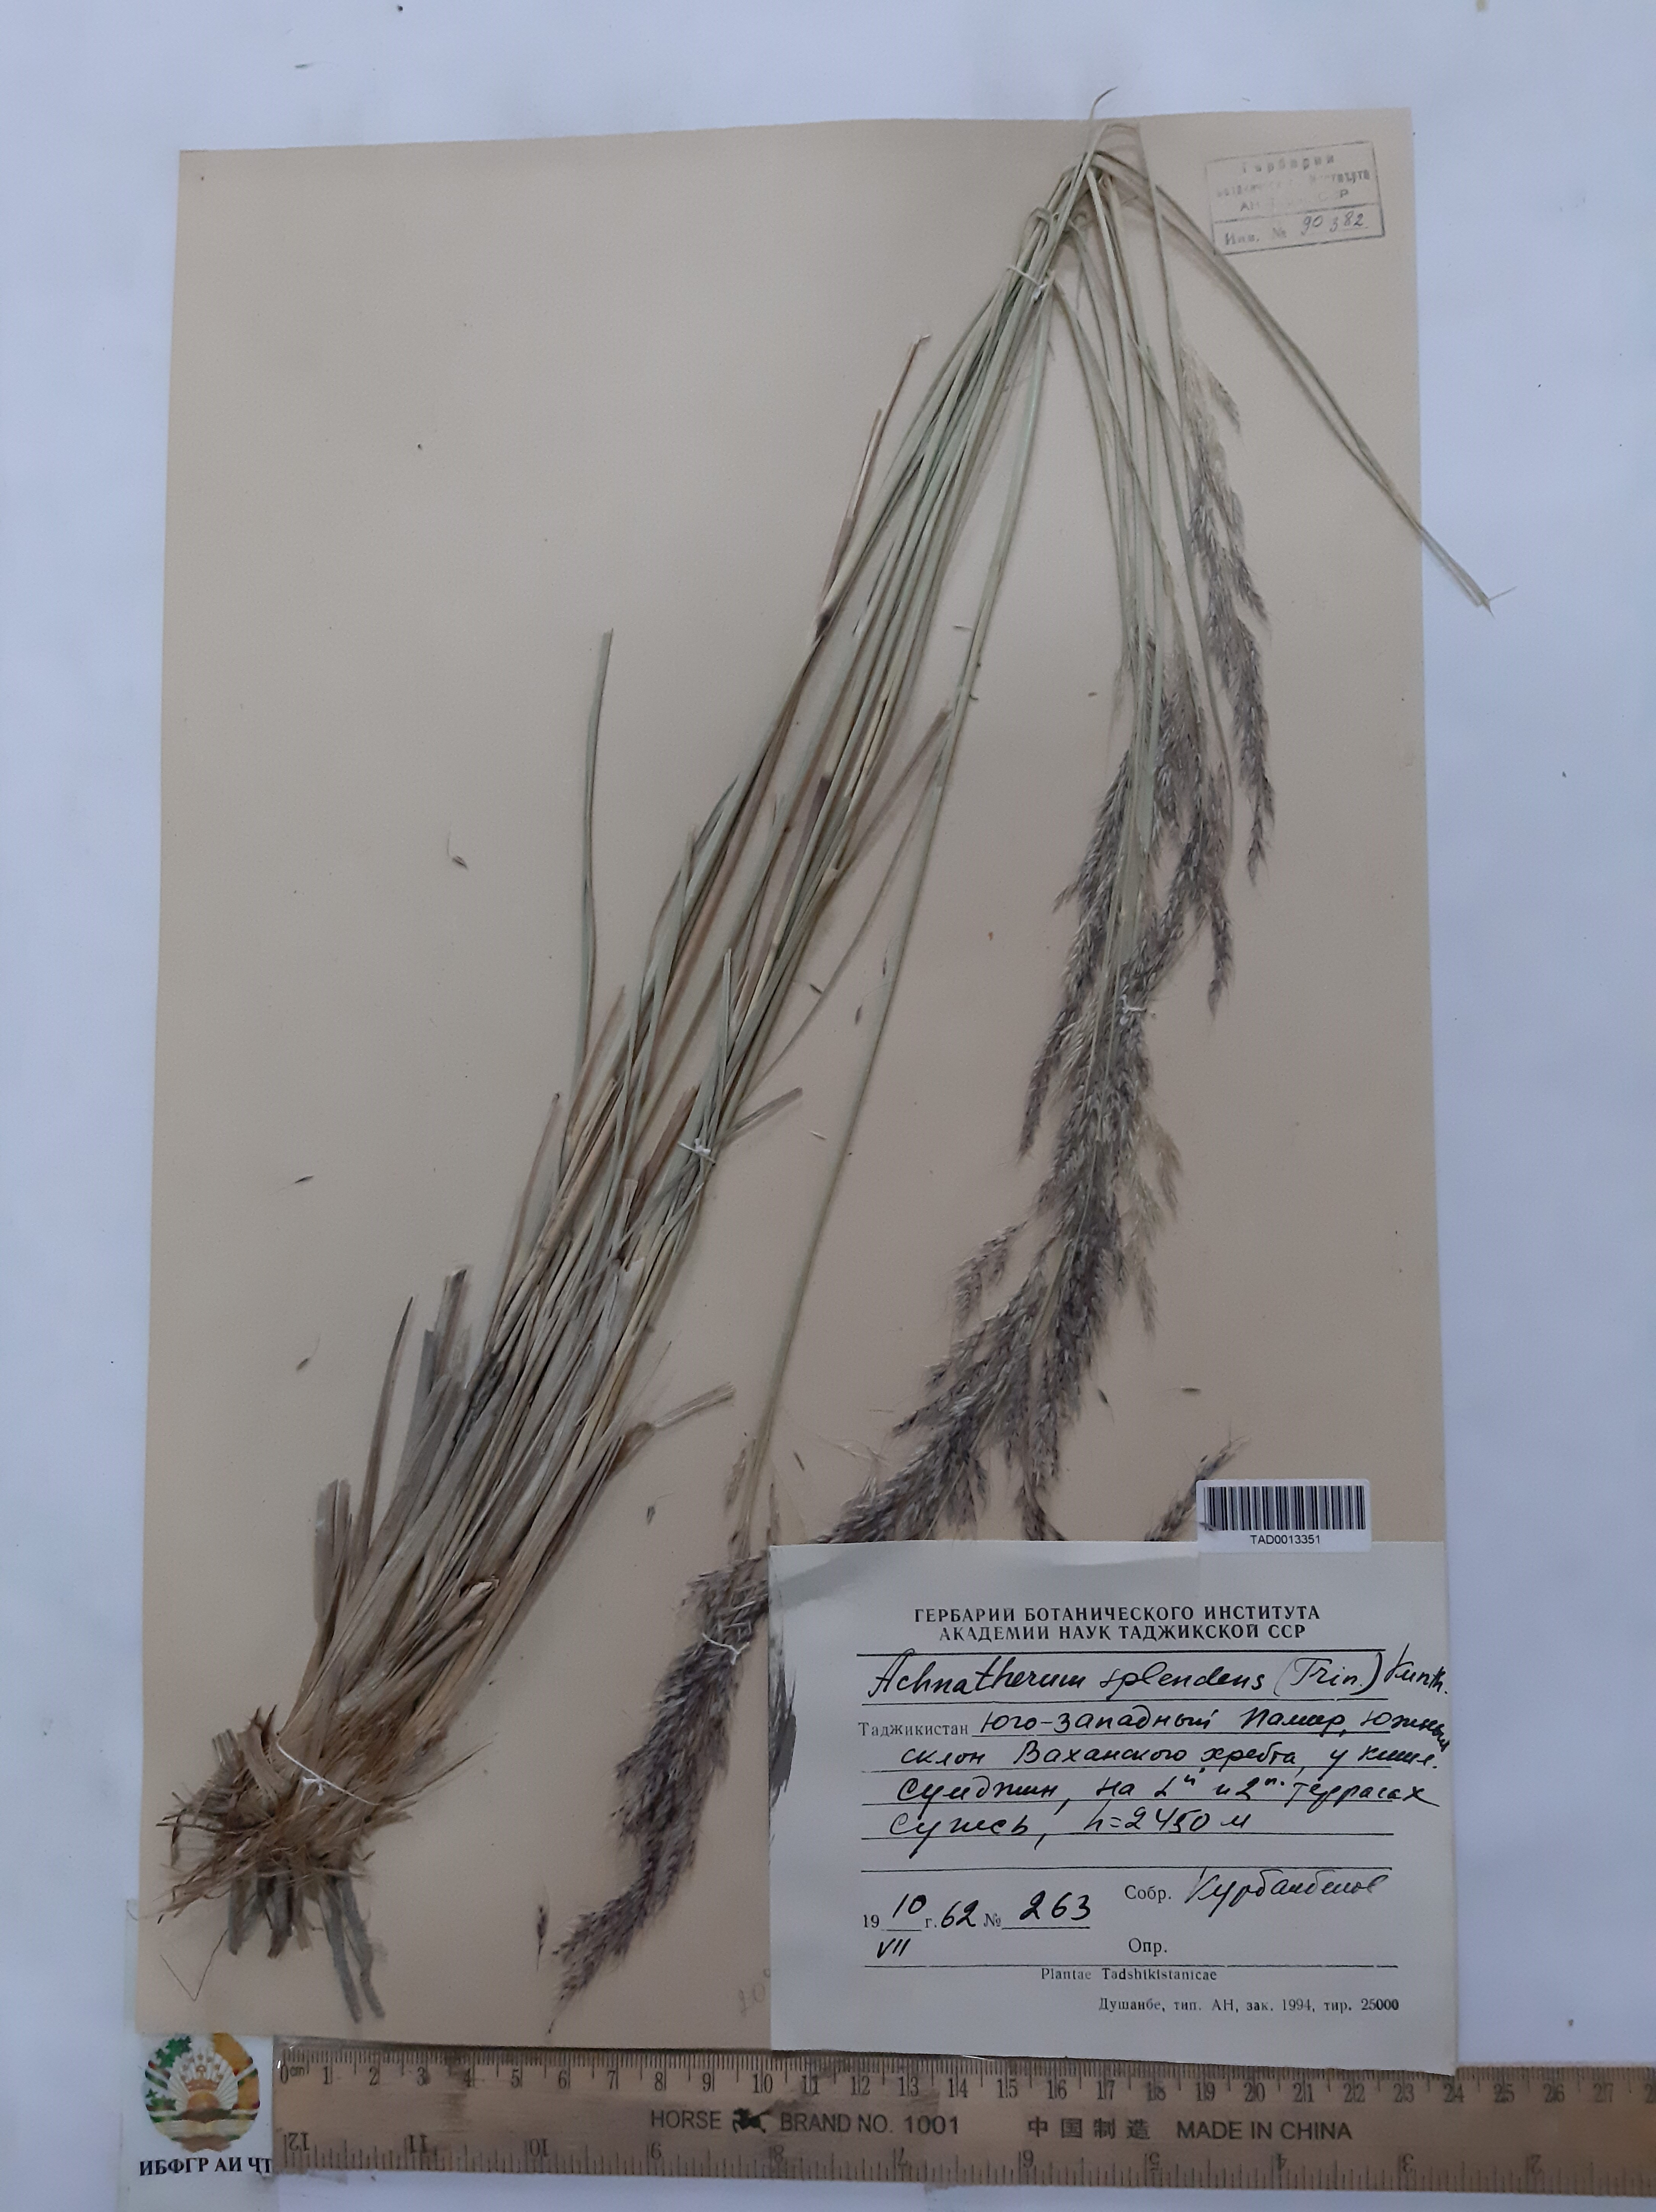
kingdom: Plantae
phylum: Tracheophyta
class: Liliopsida
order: Poales
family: Poaceae
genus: Neotrinia
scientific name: Neotrinia splendens
